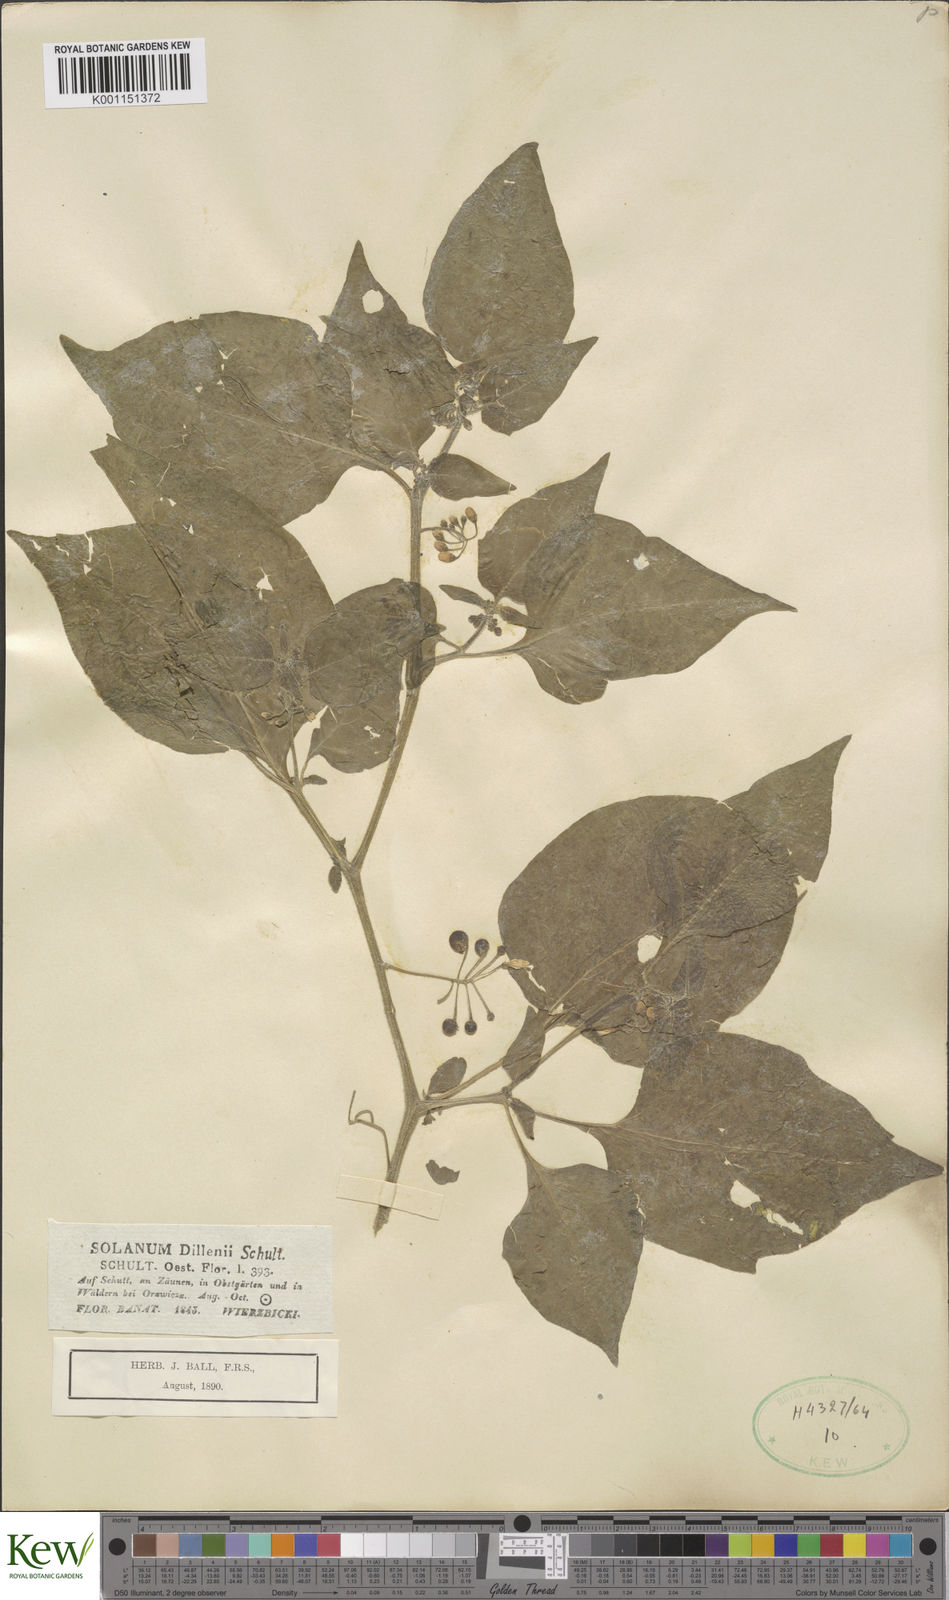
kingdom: Plantae
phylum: Tracheophyta
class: Magnoliopsida
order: Solanales
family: Solanaceae
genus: Solanum
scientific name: Solanum nigrum
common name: Black nightshade
